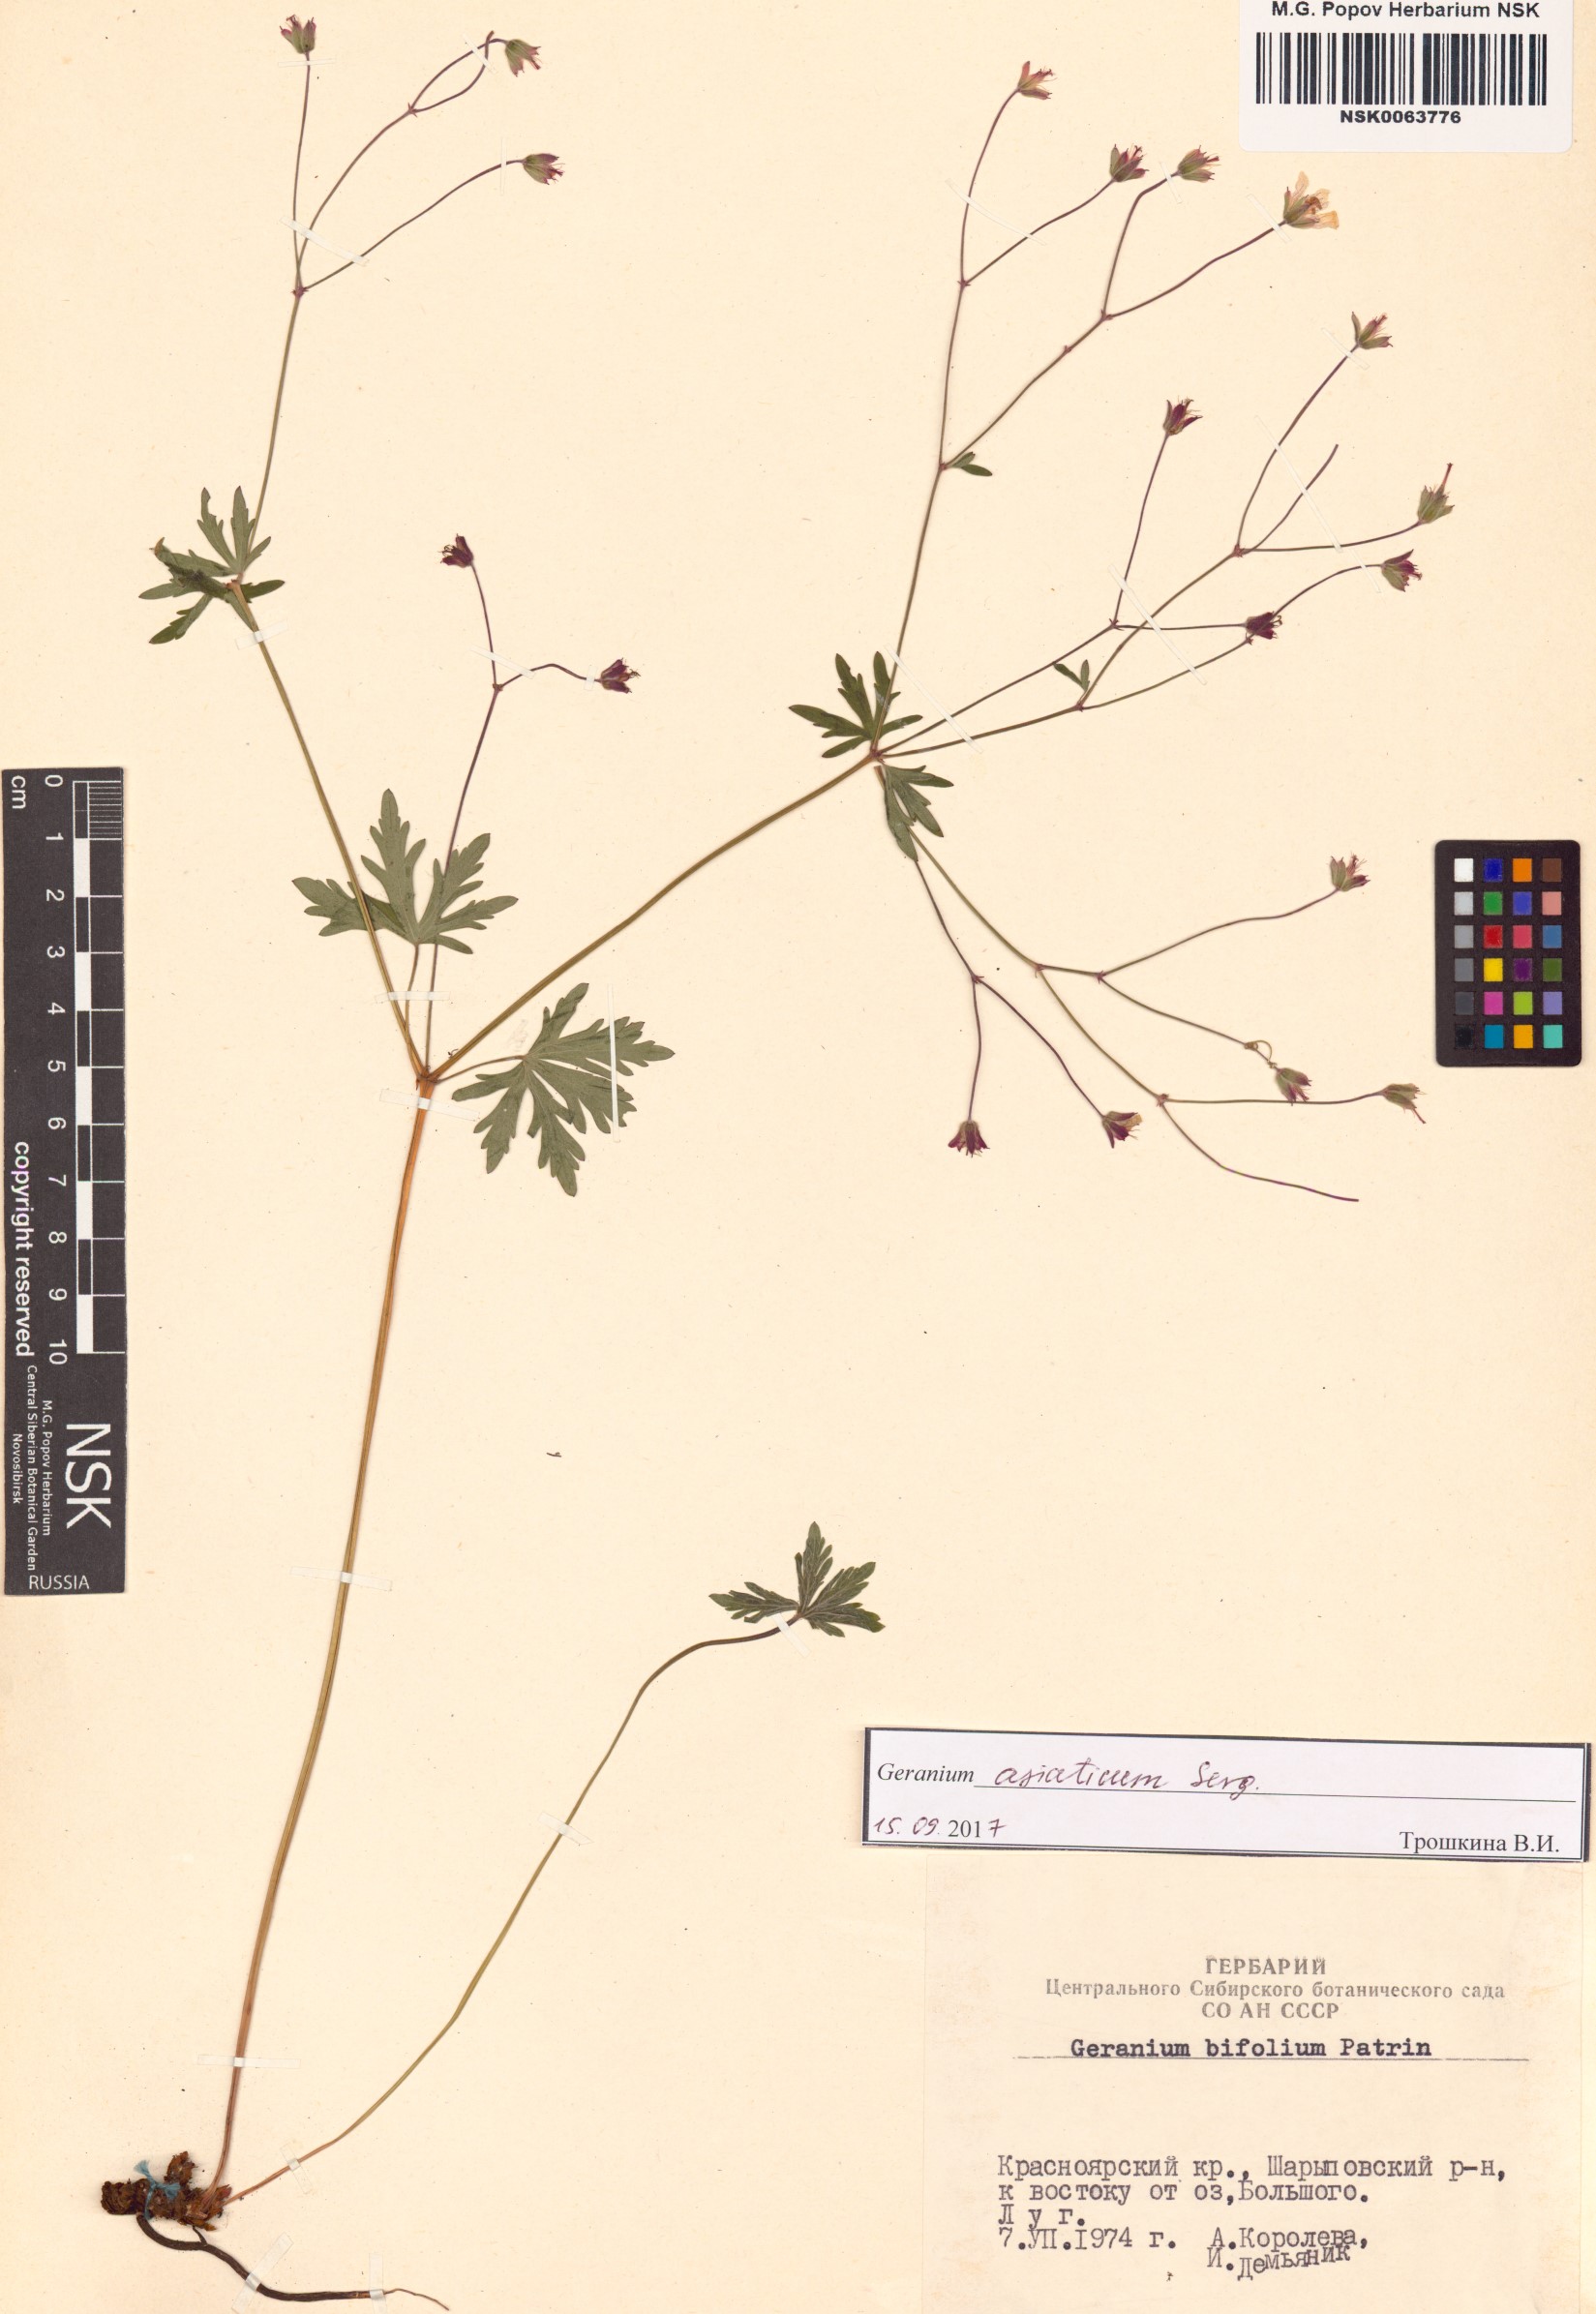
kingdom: Plantae
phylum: Tracheophyta
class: Magnoliopsida
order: Geraniales
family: Geraniaceae
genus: Geranium
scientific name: Geranium pseudosibiricum
